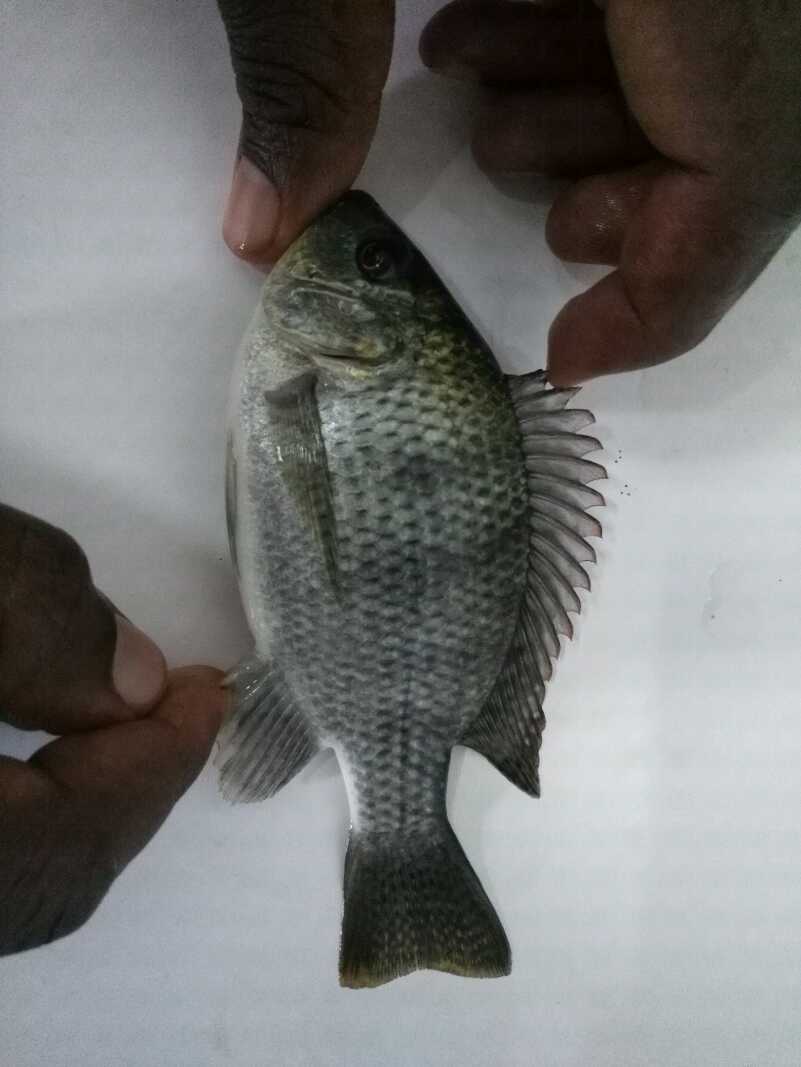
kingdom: Animalia
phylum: Chordata
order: Perciformes
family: Cichlidae
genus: Oreochromis
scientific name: Oreochromis tanganicae
